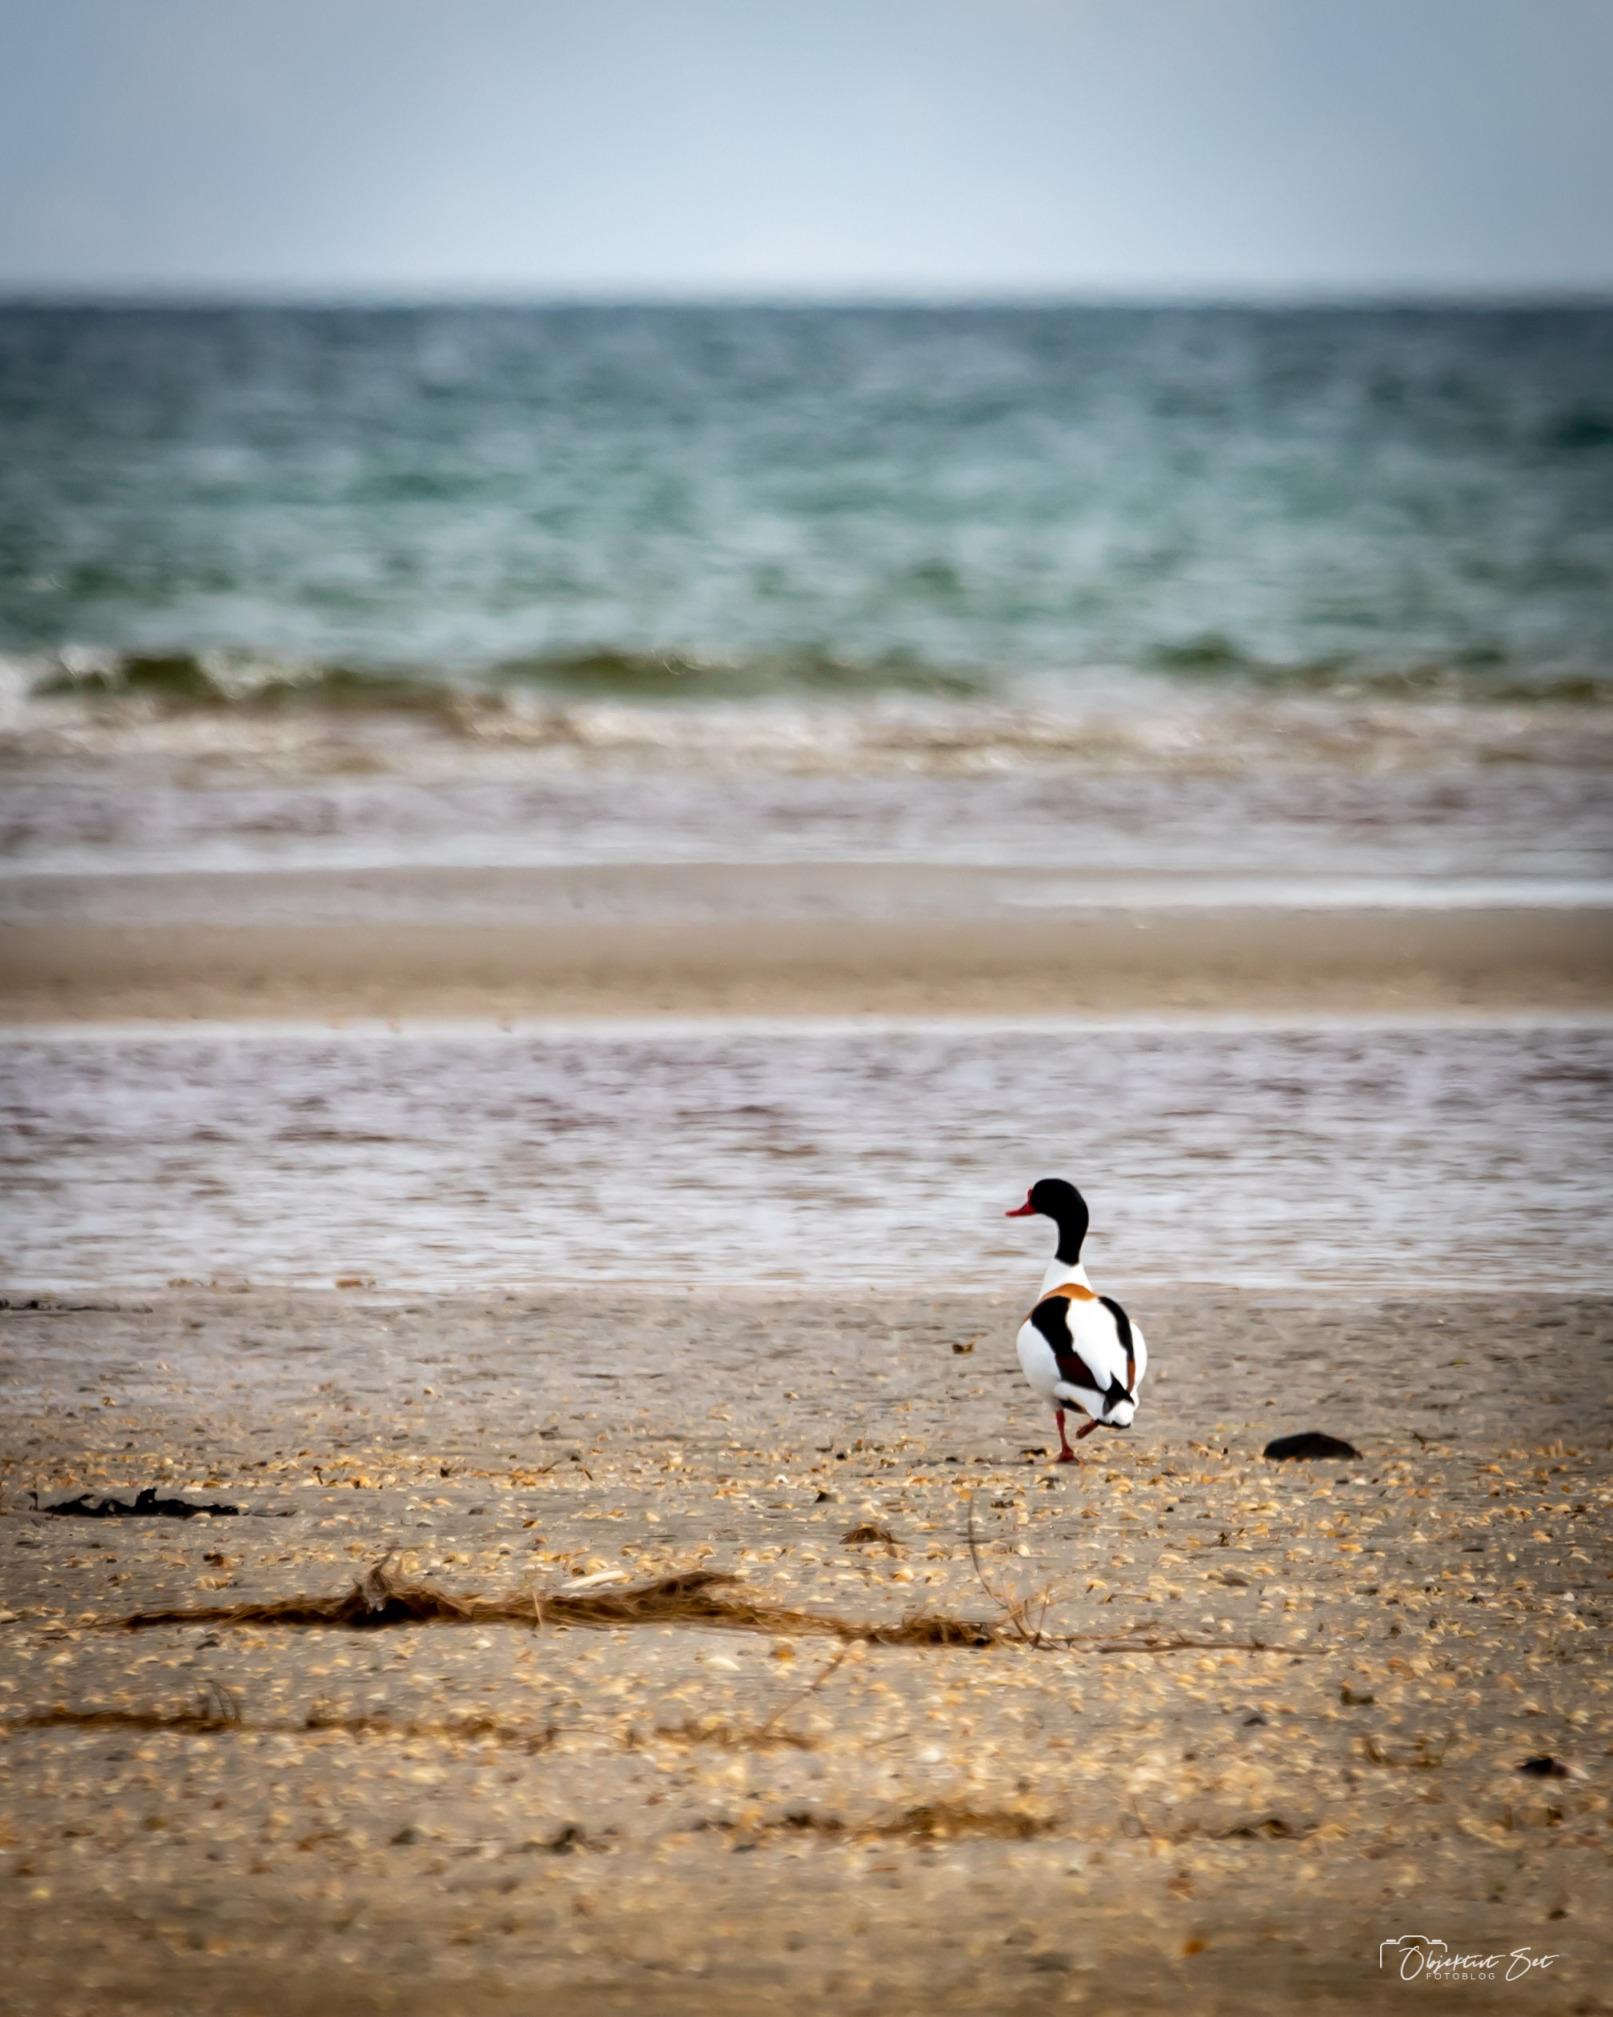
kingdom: Animalia
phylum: Chordata
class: Aves
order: Anseriformes
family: Anatidae
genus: Tadorna
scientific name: Tadorna tadorna
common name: Gravand
